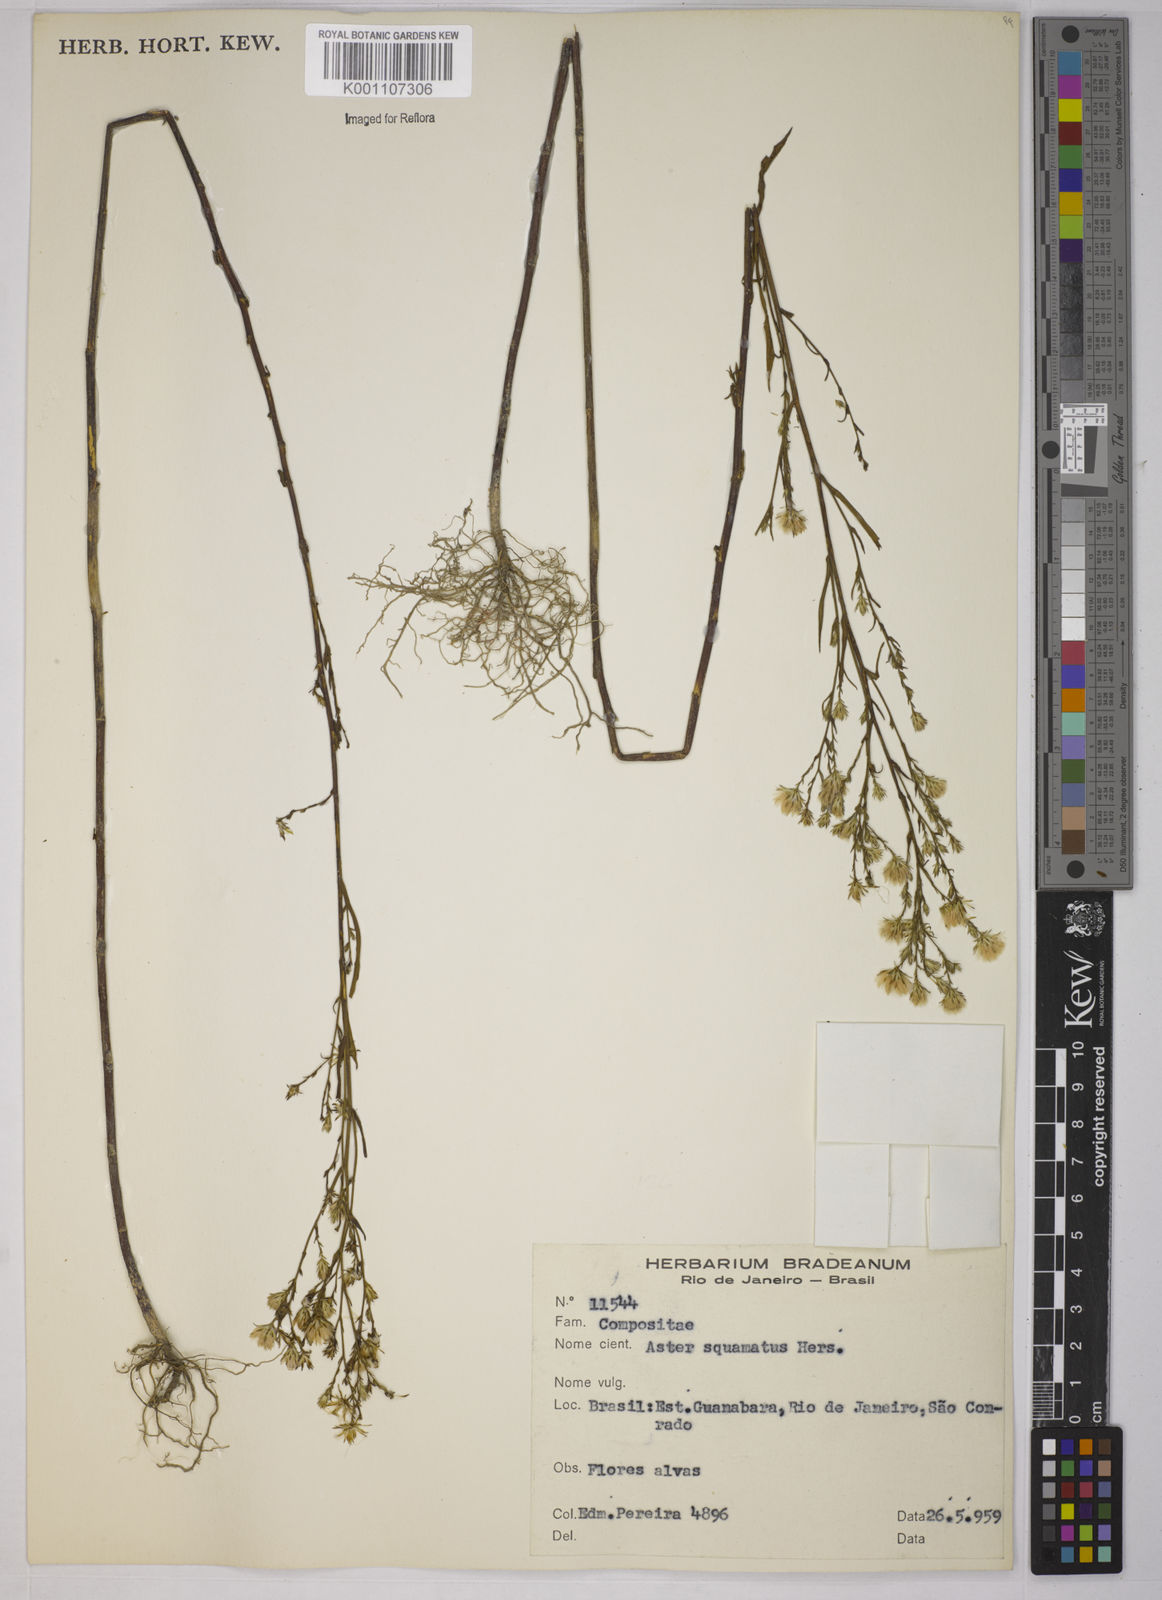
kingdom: Plantae
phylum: Tracheophyta
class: Magnoliopsida
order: Asterales
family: Asteraceae
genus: Symphyotrichum
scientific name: Symphyotrichum
